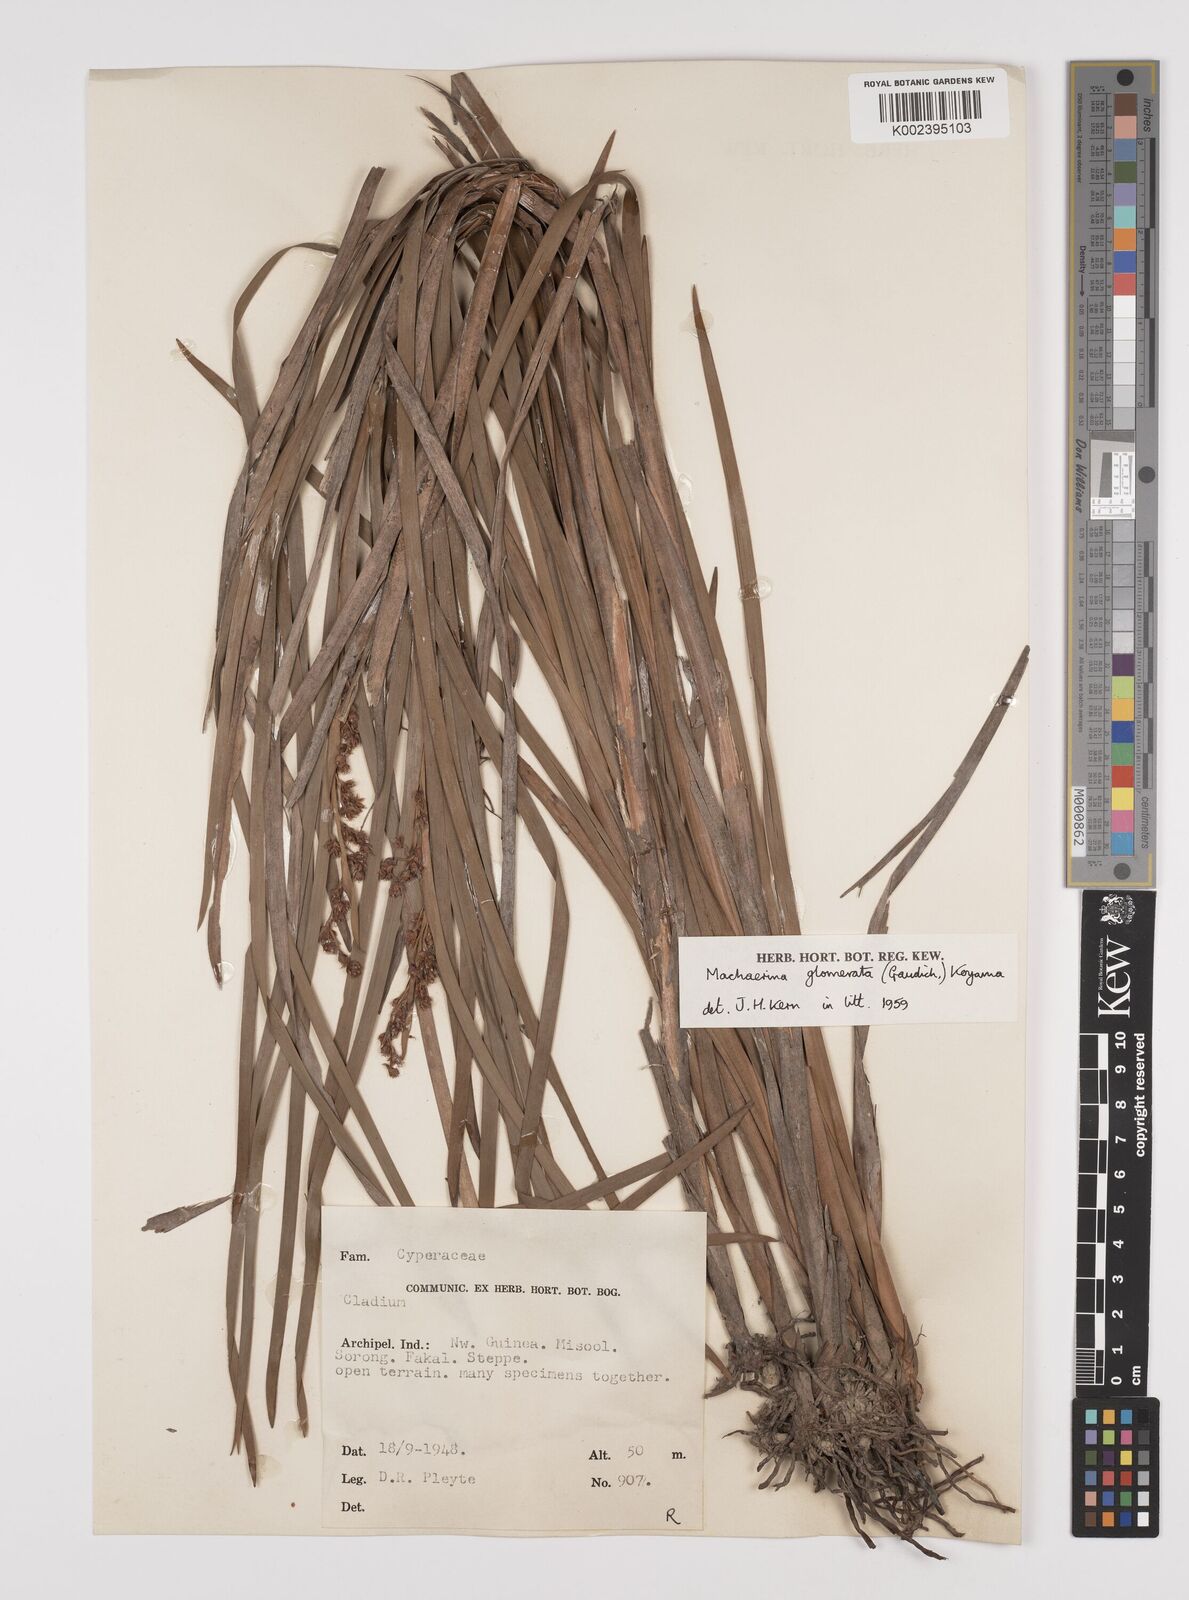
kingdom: Plantae
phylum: Tracheophyta
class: Liliopsida
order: Poales
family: Cyperaceae
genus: Machaerina
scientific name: Machaerina glomerata
